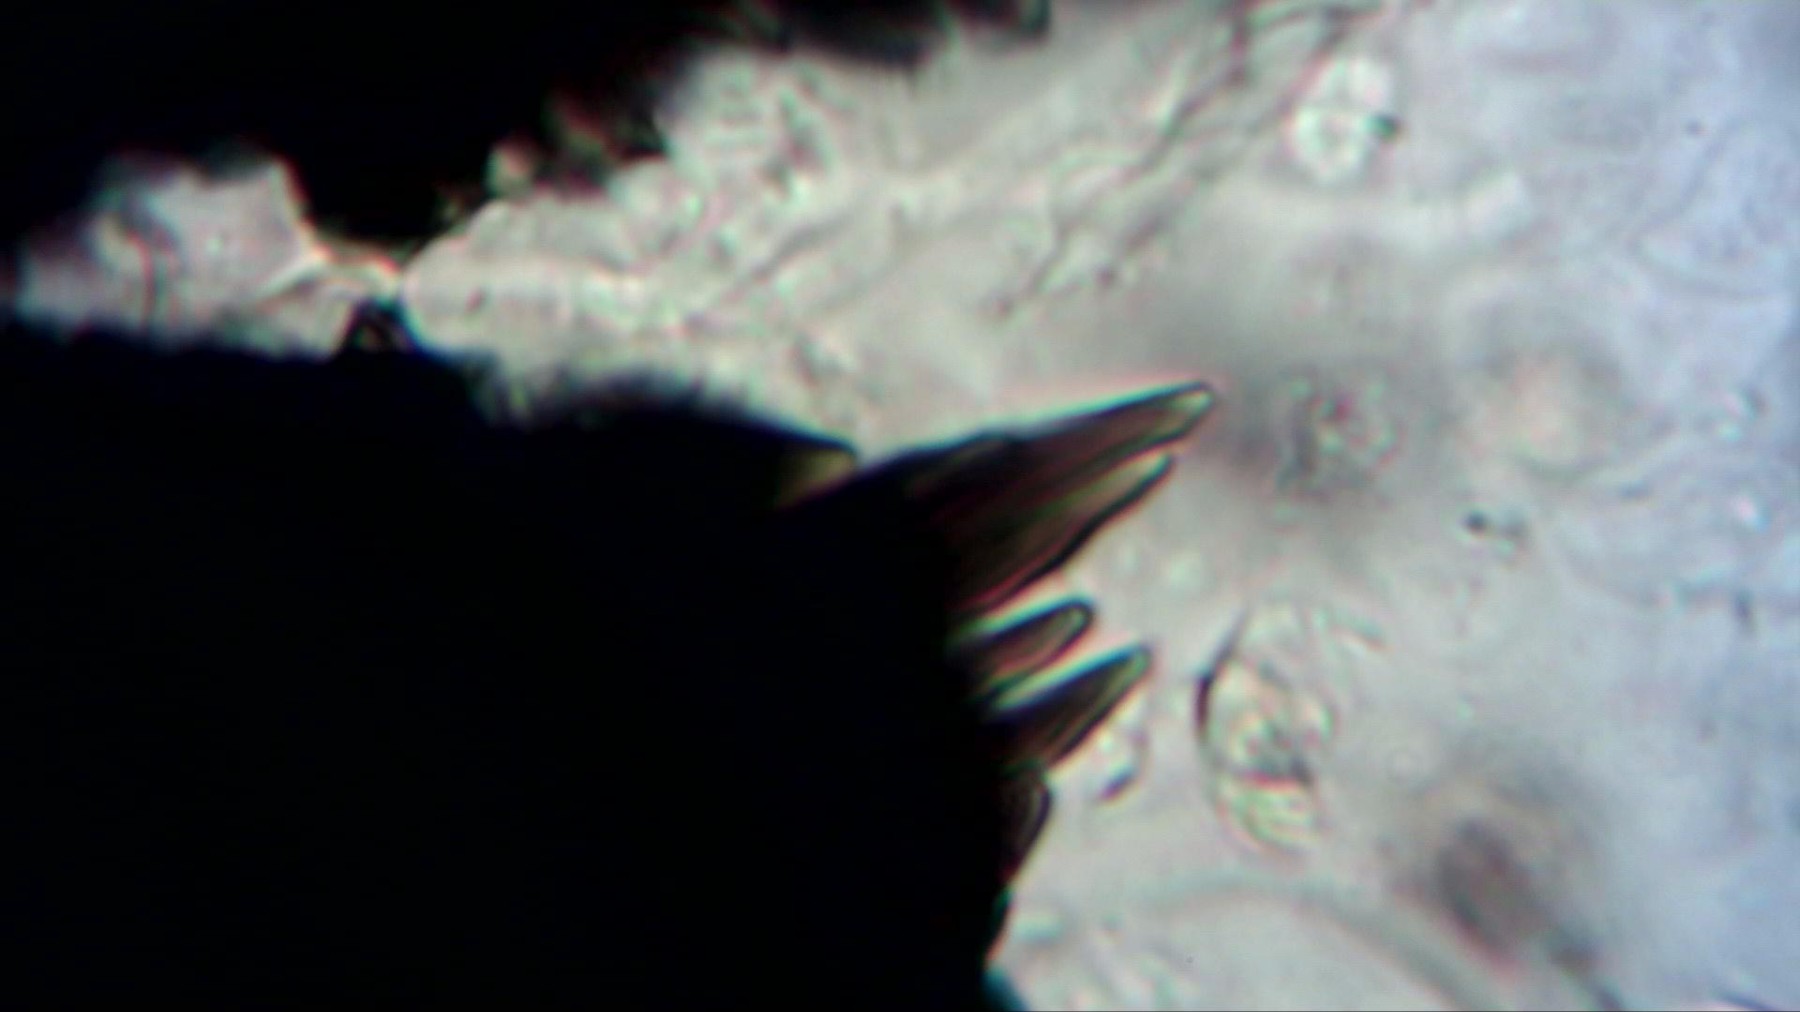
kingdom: Fungi
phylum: Ascomycota
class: Eurotiomycetes
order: Chaetothyriales
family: Herpotrichiellaceae
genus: Capronia
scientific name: Capronia
